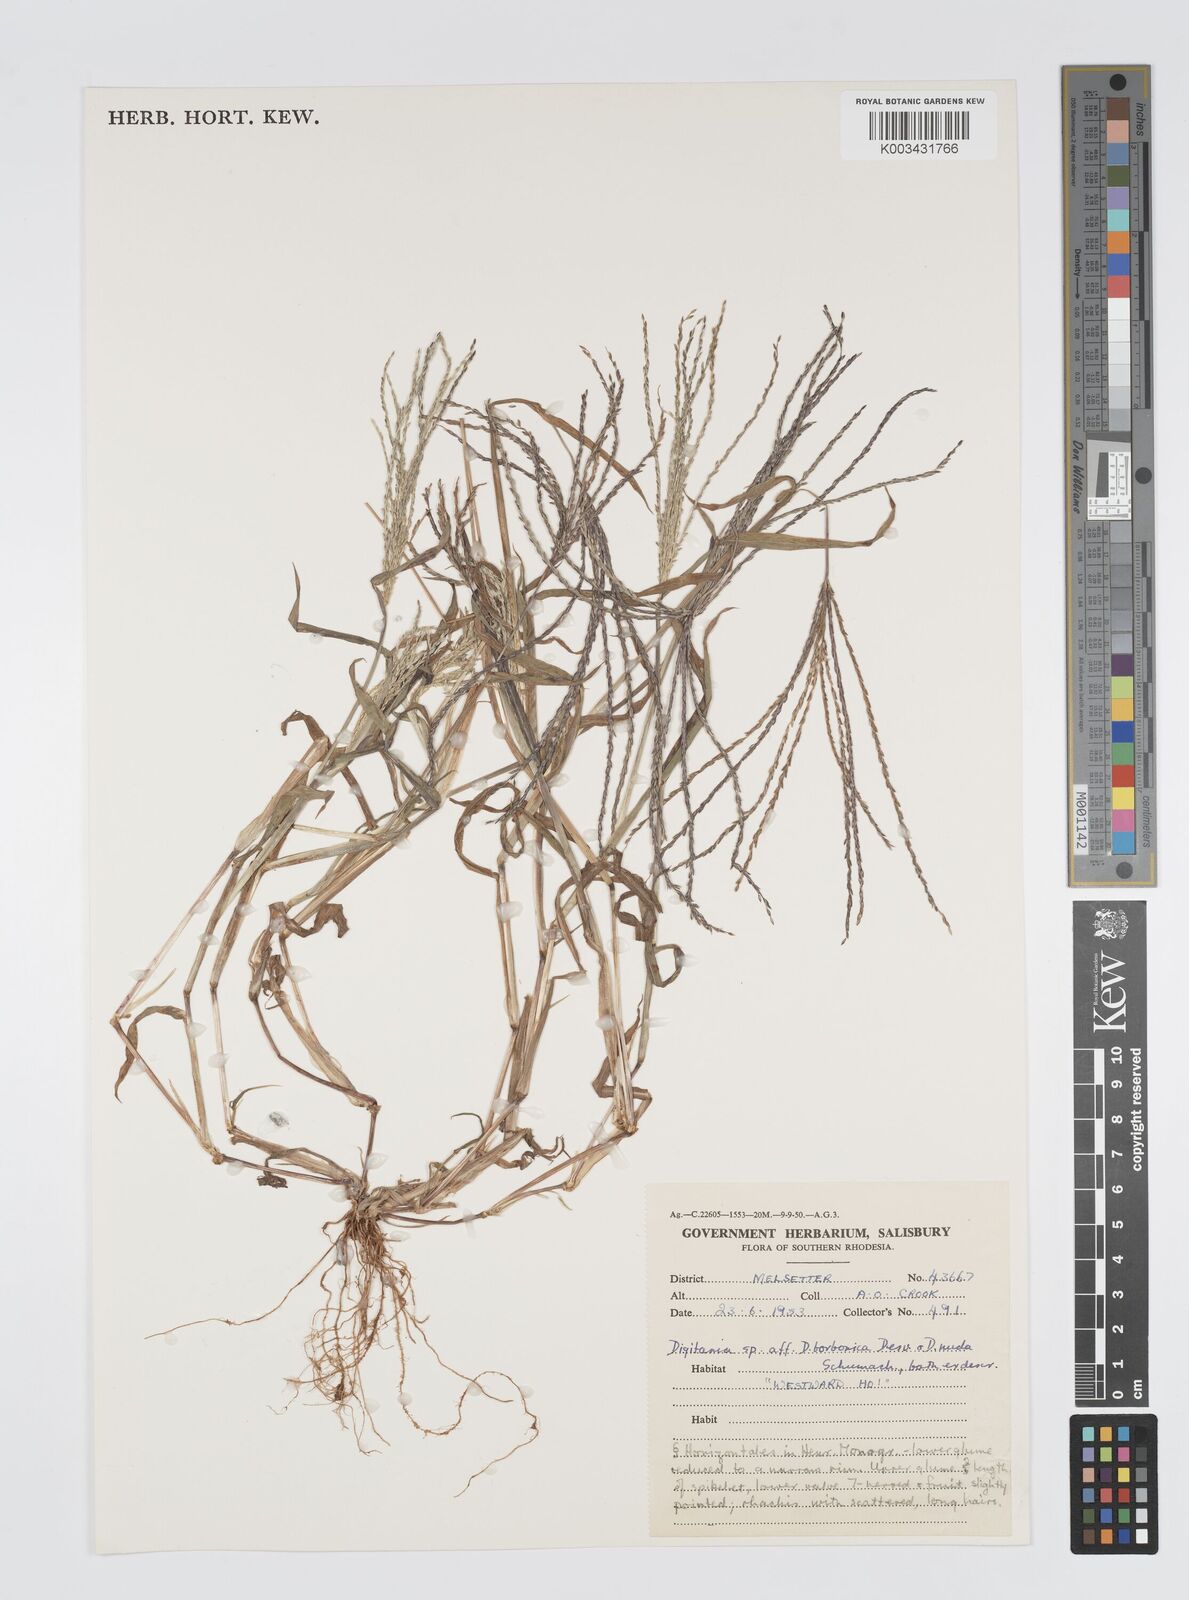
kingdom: Plantae
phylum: Tracheophyta
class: Liliopsida
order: Poales
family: Poaceae
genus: Digitaria
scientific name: Digitaria nuda
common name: Naked crabgrass
